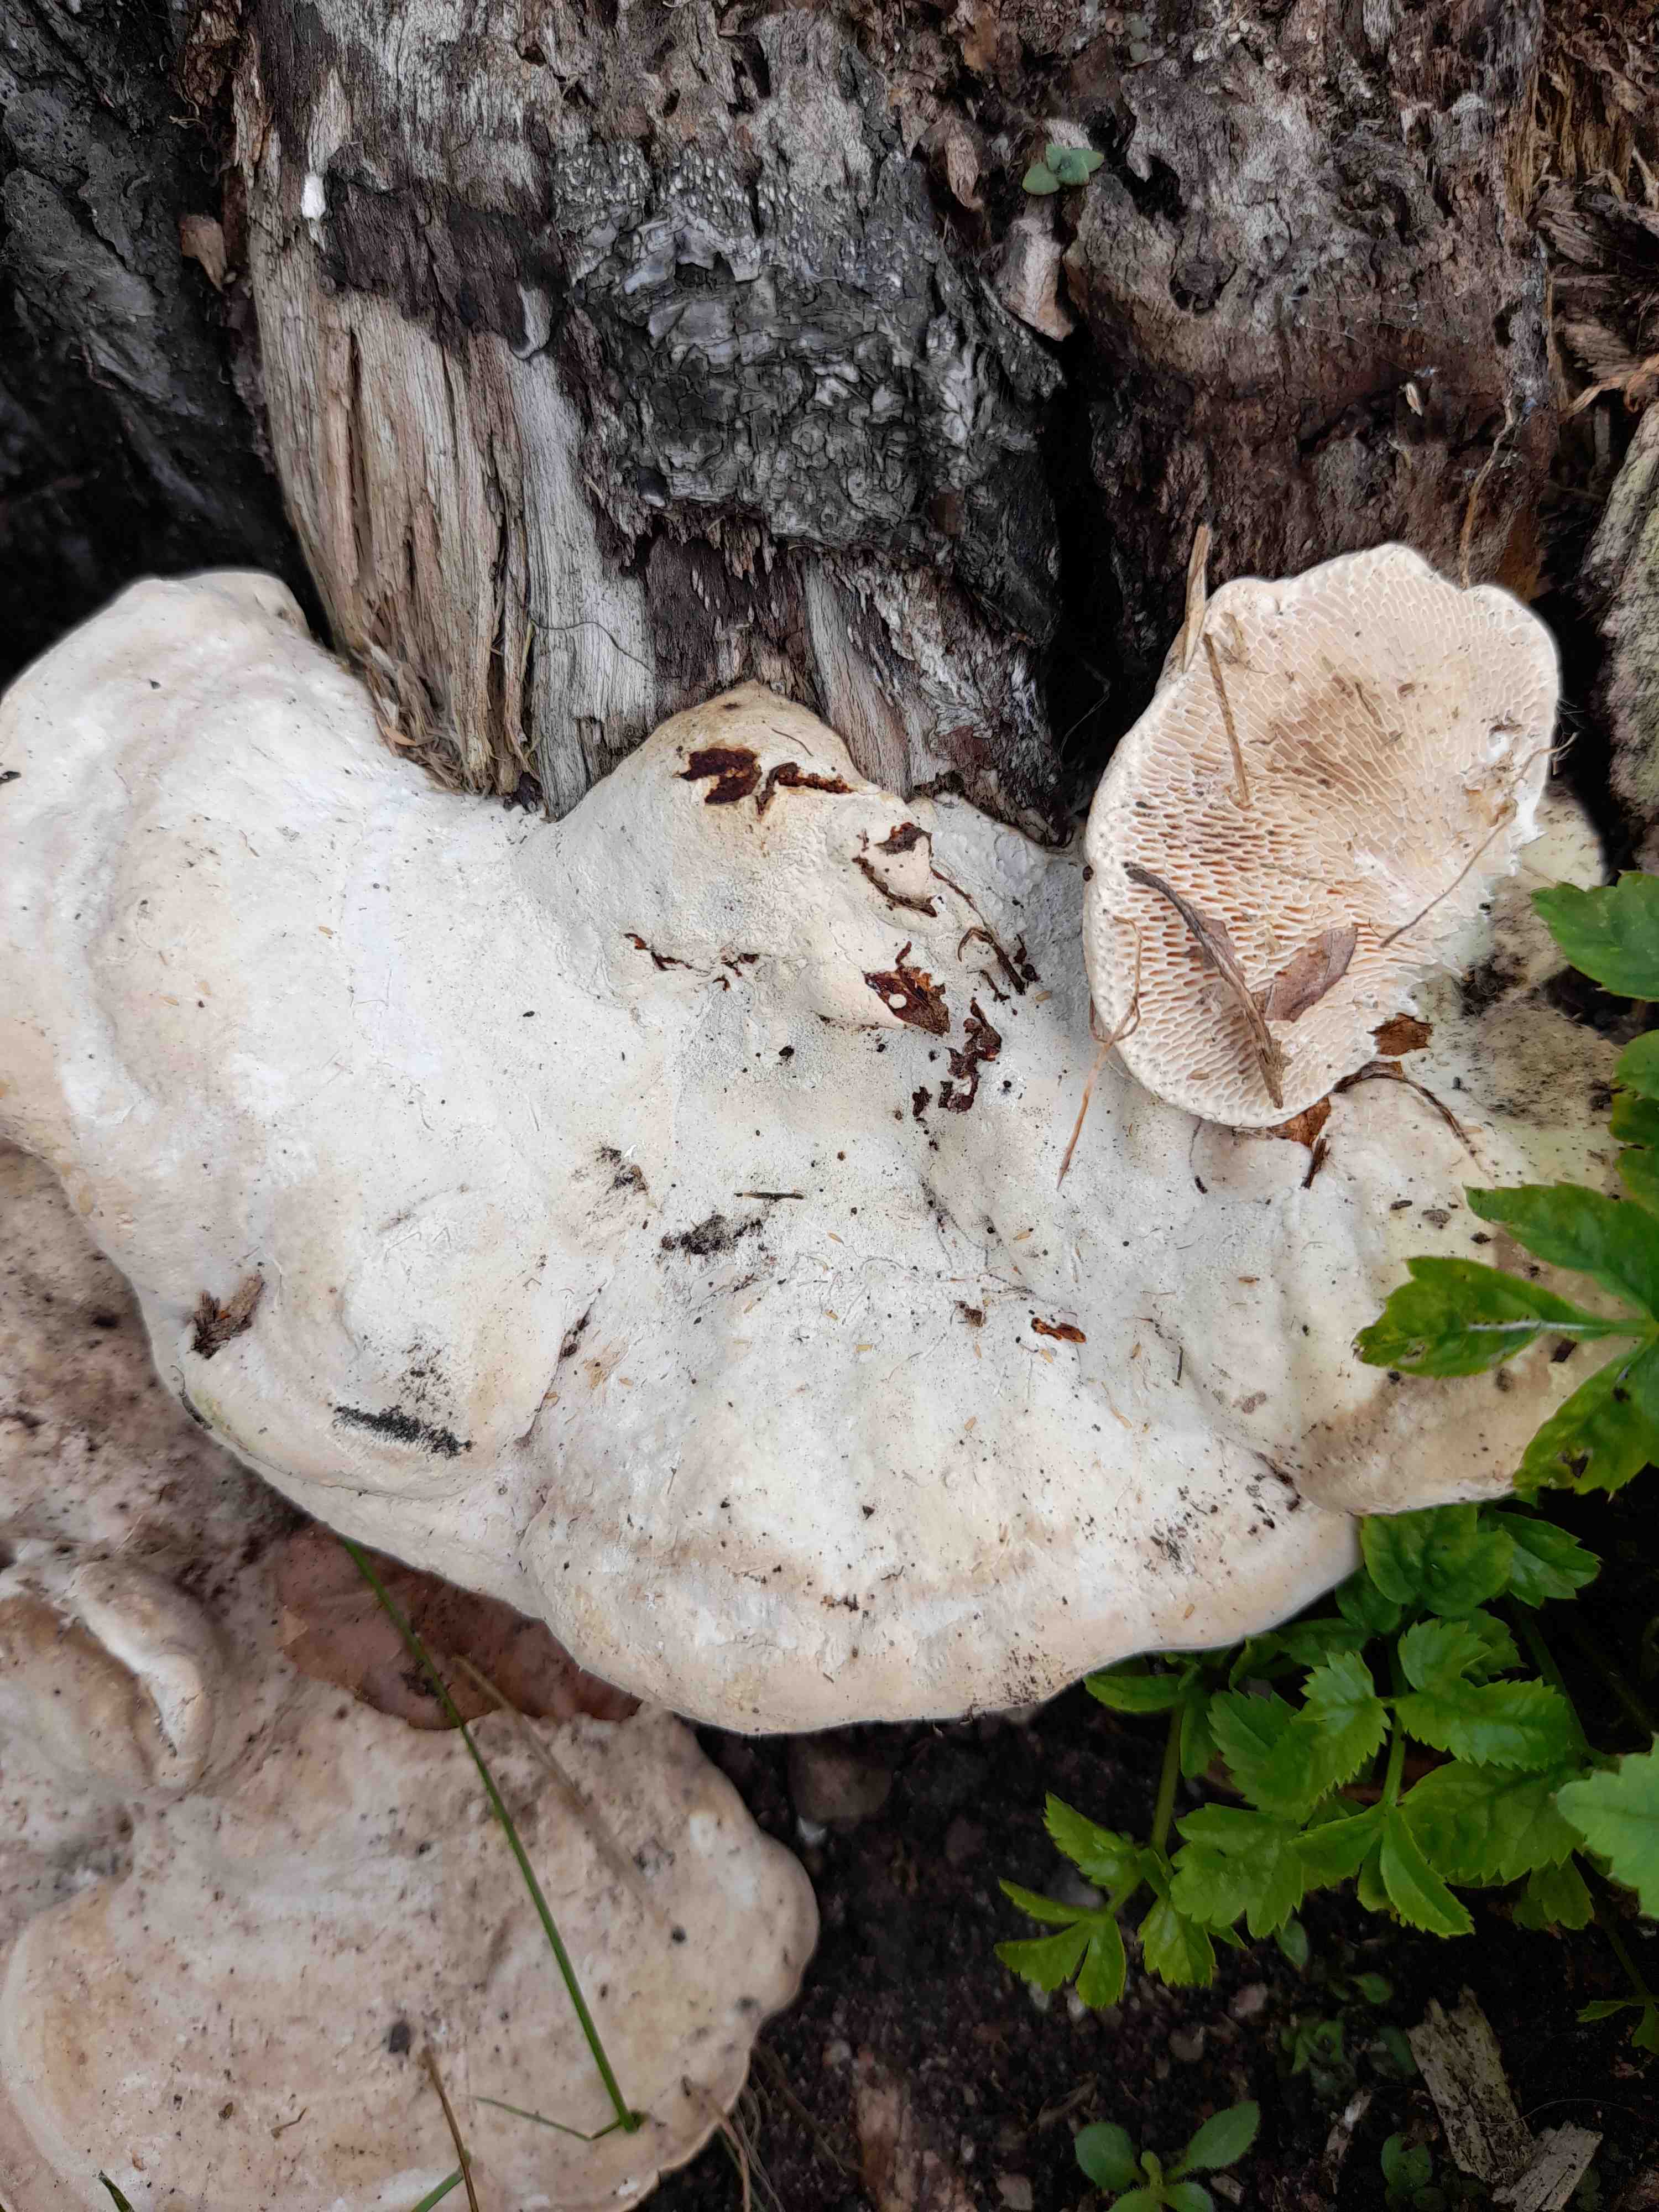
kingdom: Fungi
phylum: Basidiomycota
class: Agaricomycetes
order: Polyporales
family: Polyporaceae
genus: Trametes
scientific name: Trametes gibbosa
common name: puklet læderporesvamp
